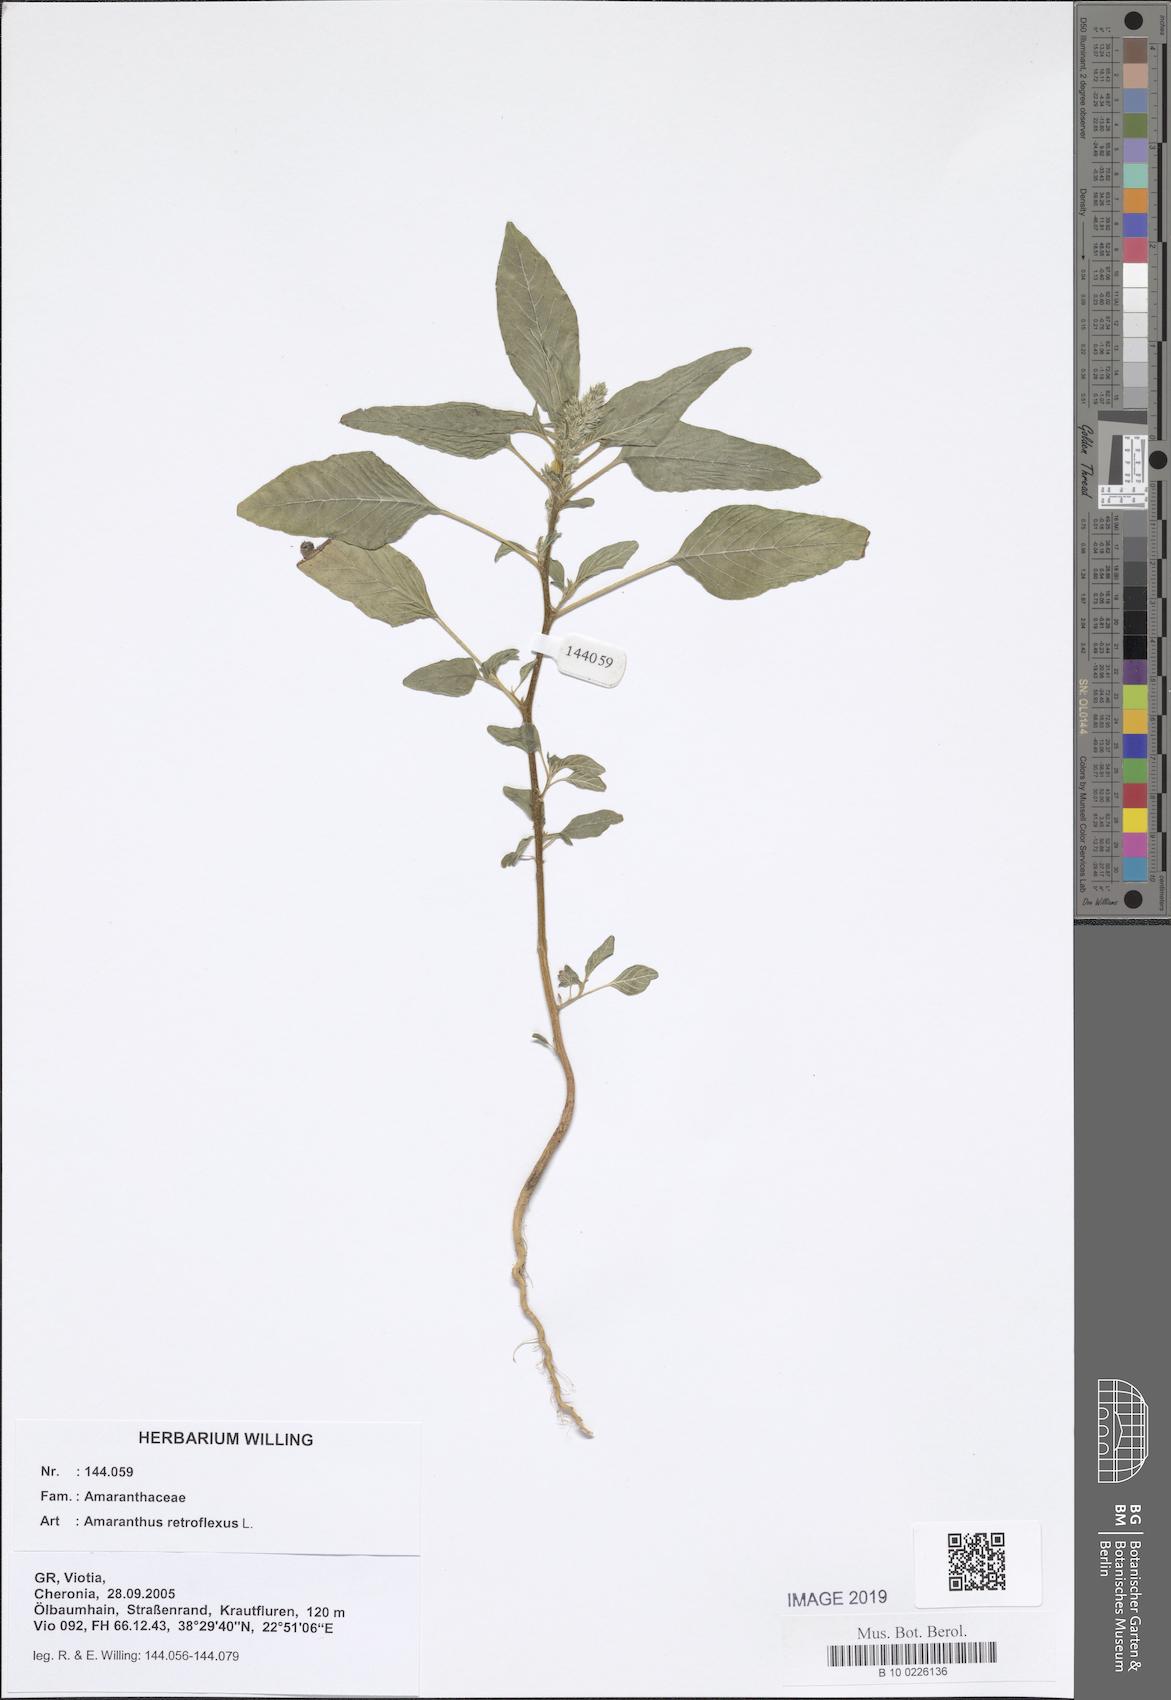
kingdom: Plantae
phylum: Tracheophyta
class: Magnoliopsida
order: Caryophyllales
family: Amaranthaceae
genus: Amaranthus
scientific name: Amaranthus retroflexus
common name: Redroot amaranth
